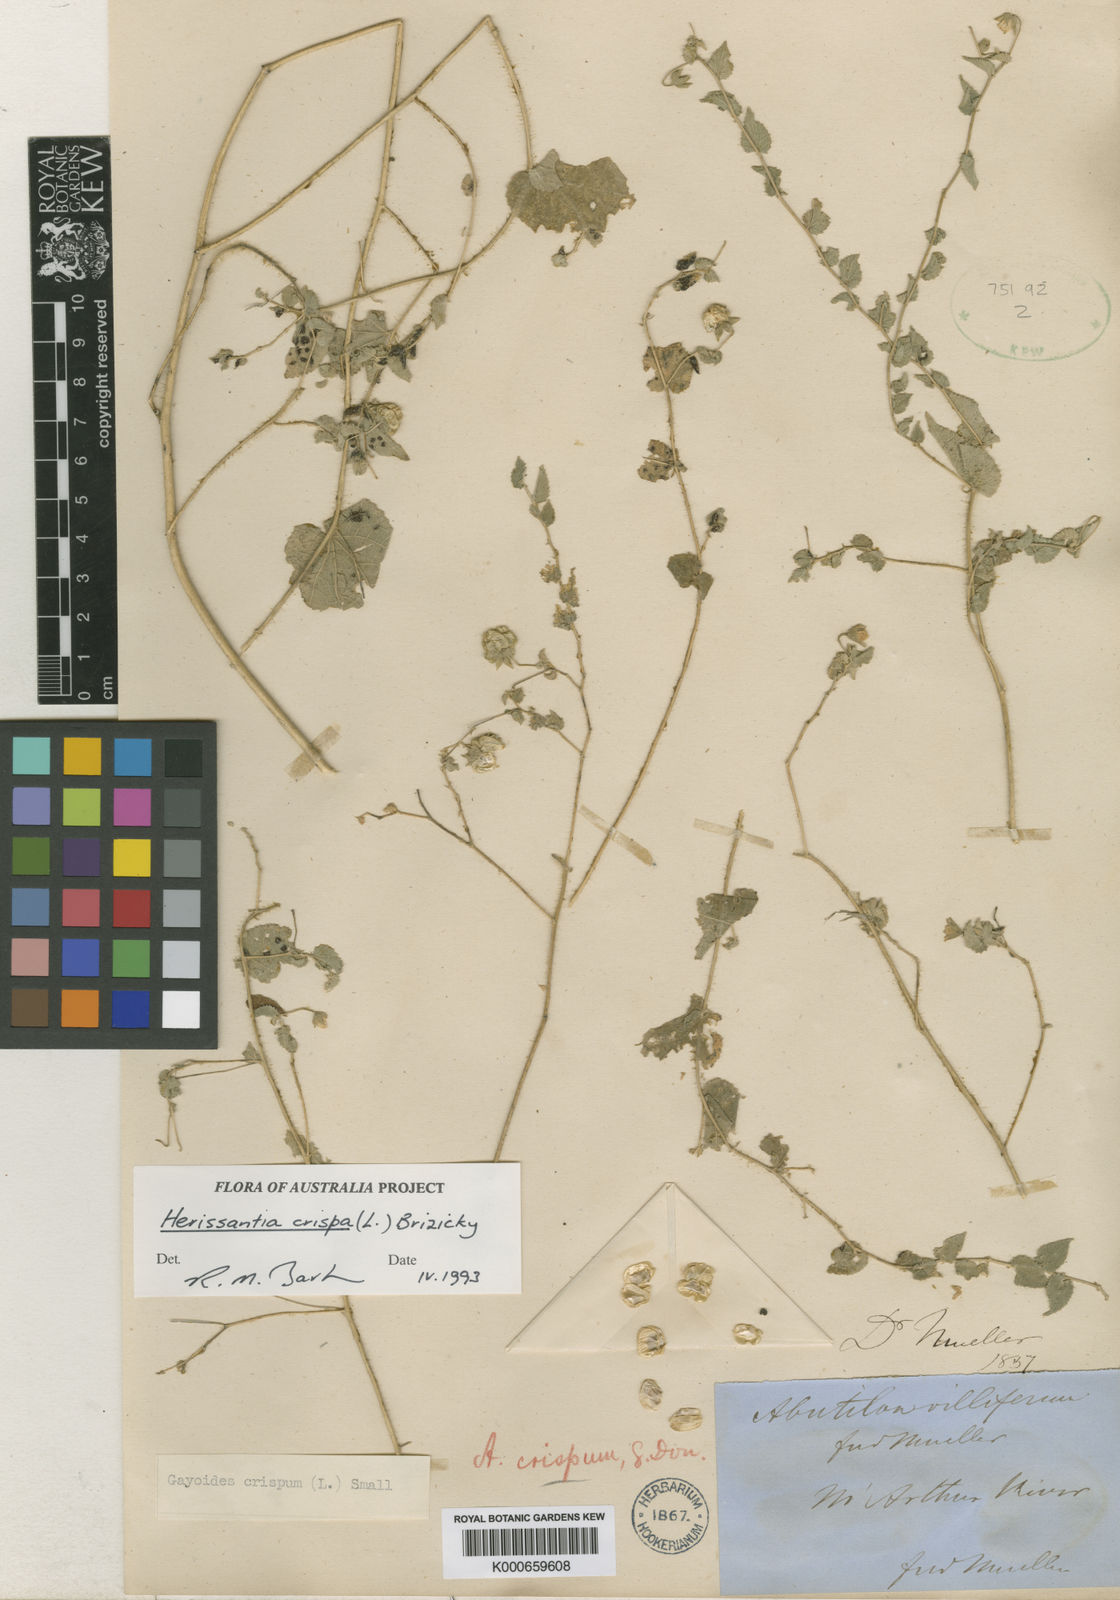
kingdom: Plantae
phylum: Tracheophyta
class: Magnoliopsida
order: Malvales
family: Malvaceae
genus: Abutilon
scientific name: Abutilon
